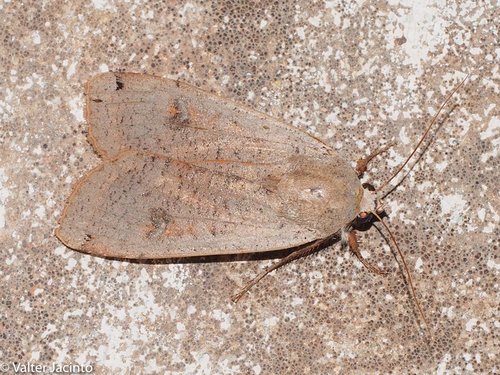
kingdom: Animalia
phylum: Arthropoda
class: Insecta
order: Lepidoptera
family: Noctuidae
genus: Noctua
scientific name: Noctua pronuba
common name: Large yellow underwing
